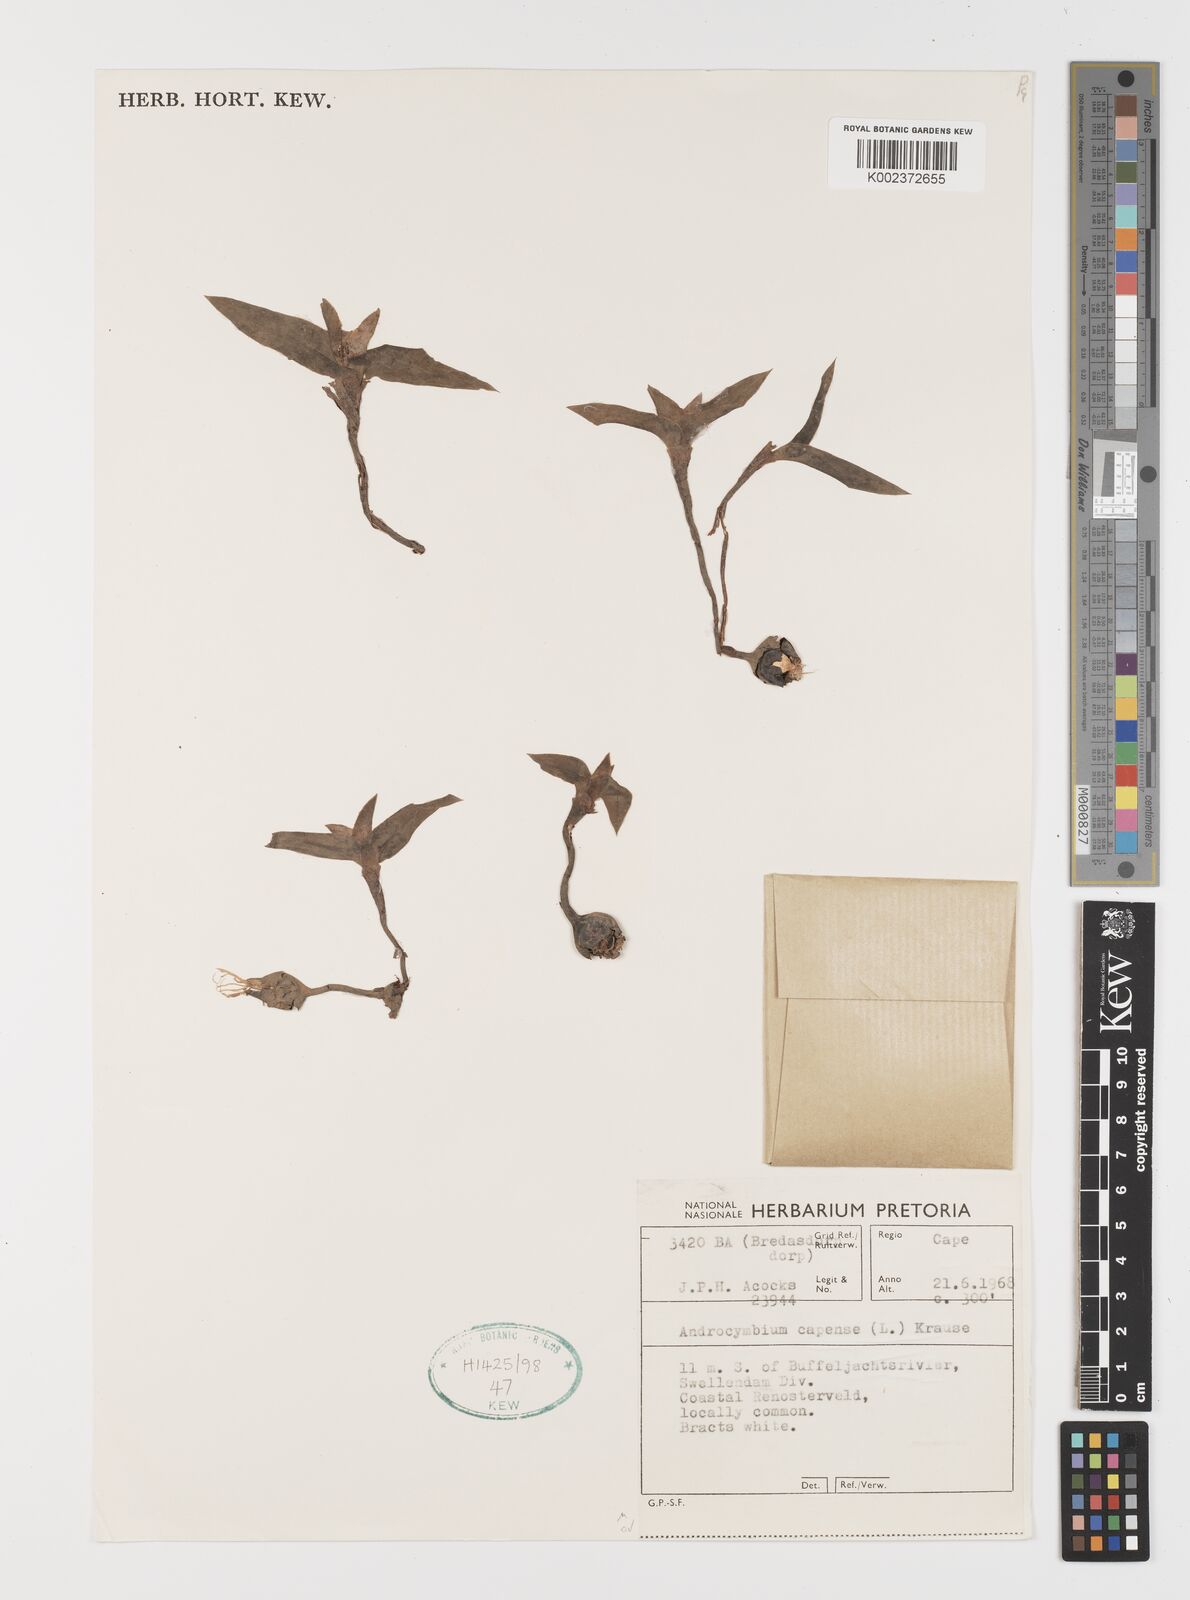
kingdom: Plantae
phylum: Tracheophyta
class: Liliopsida
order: Liliales
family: Colchicaceae
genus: Colchicum
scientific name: Colchicum capense
